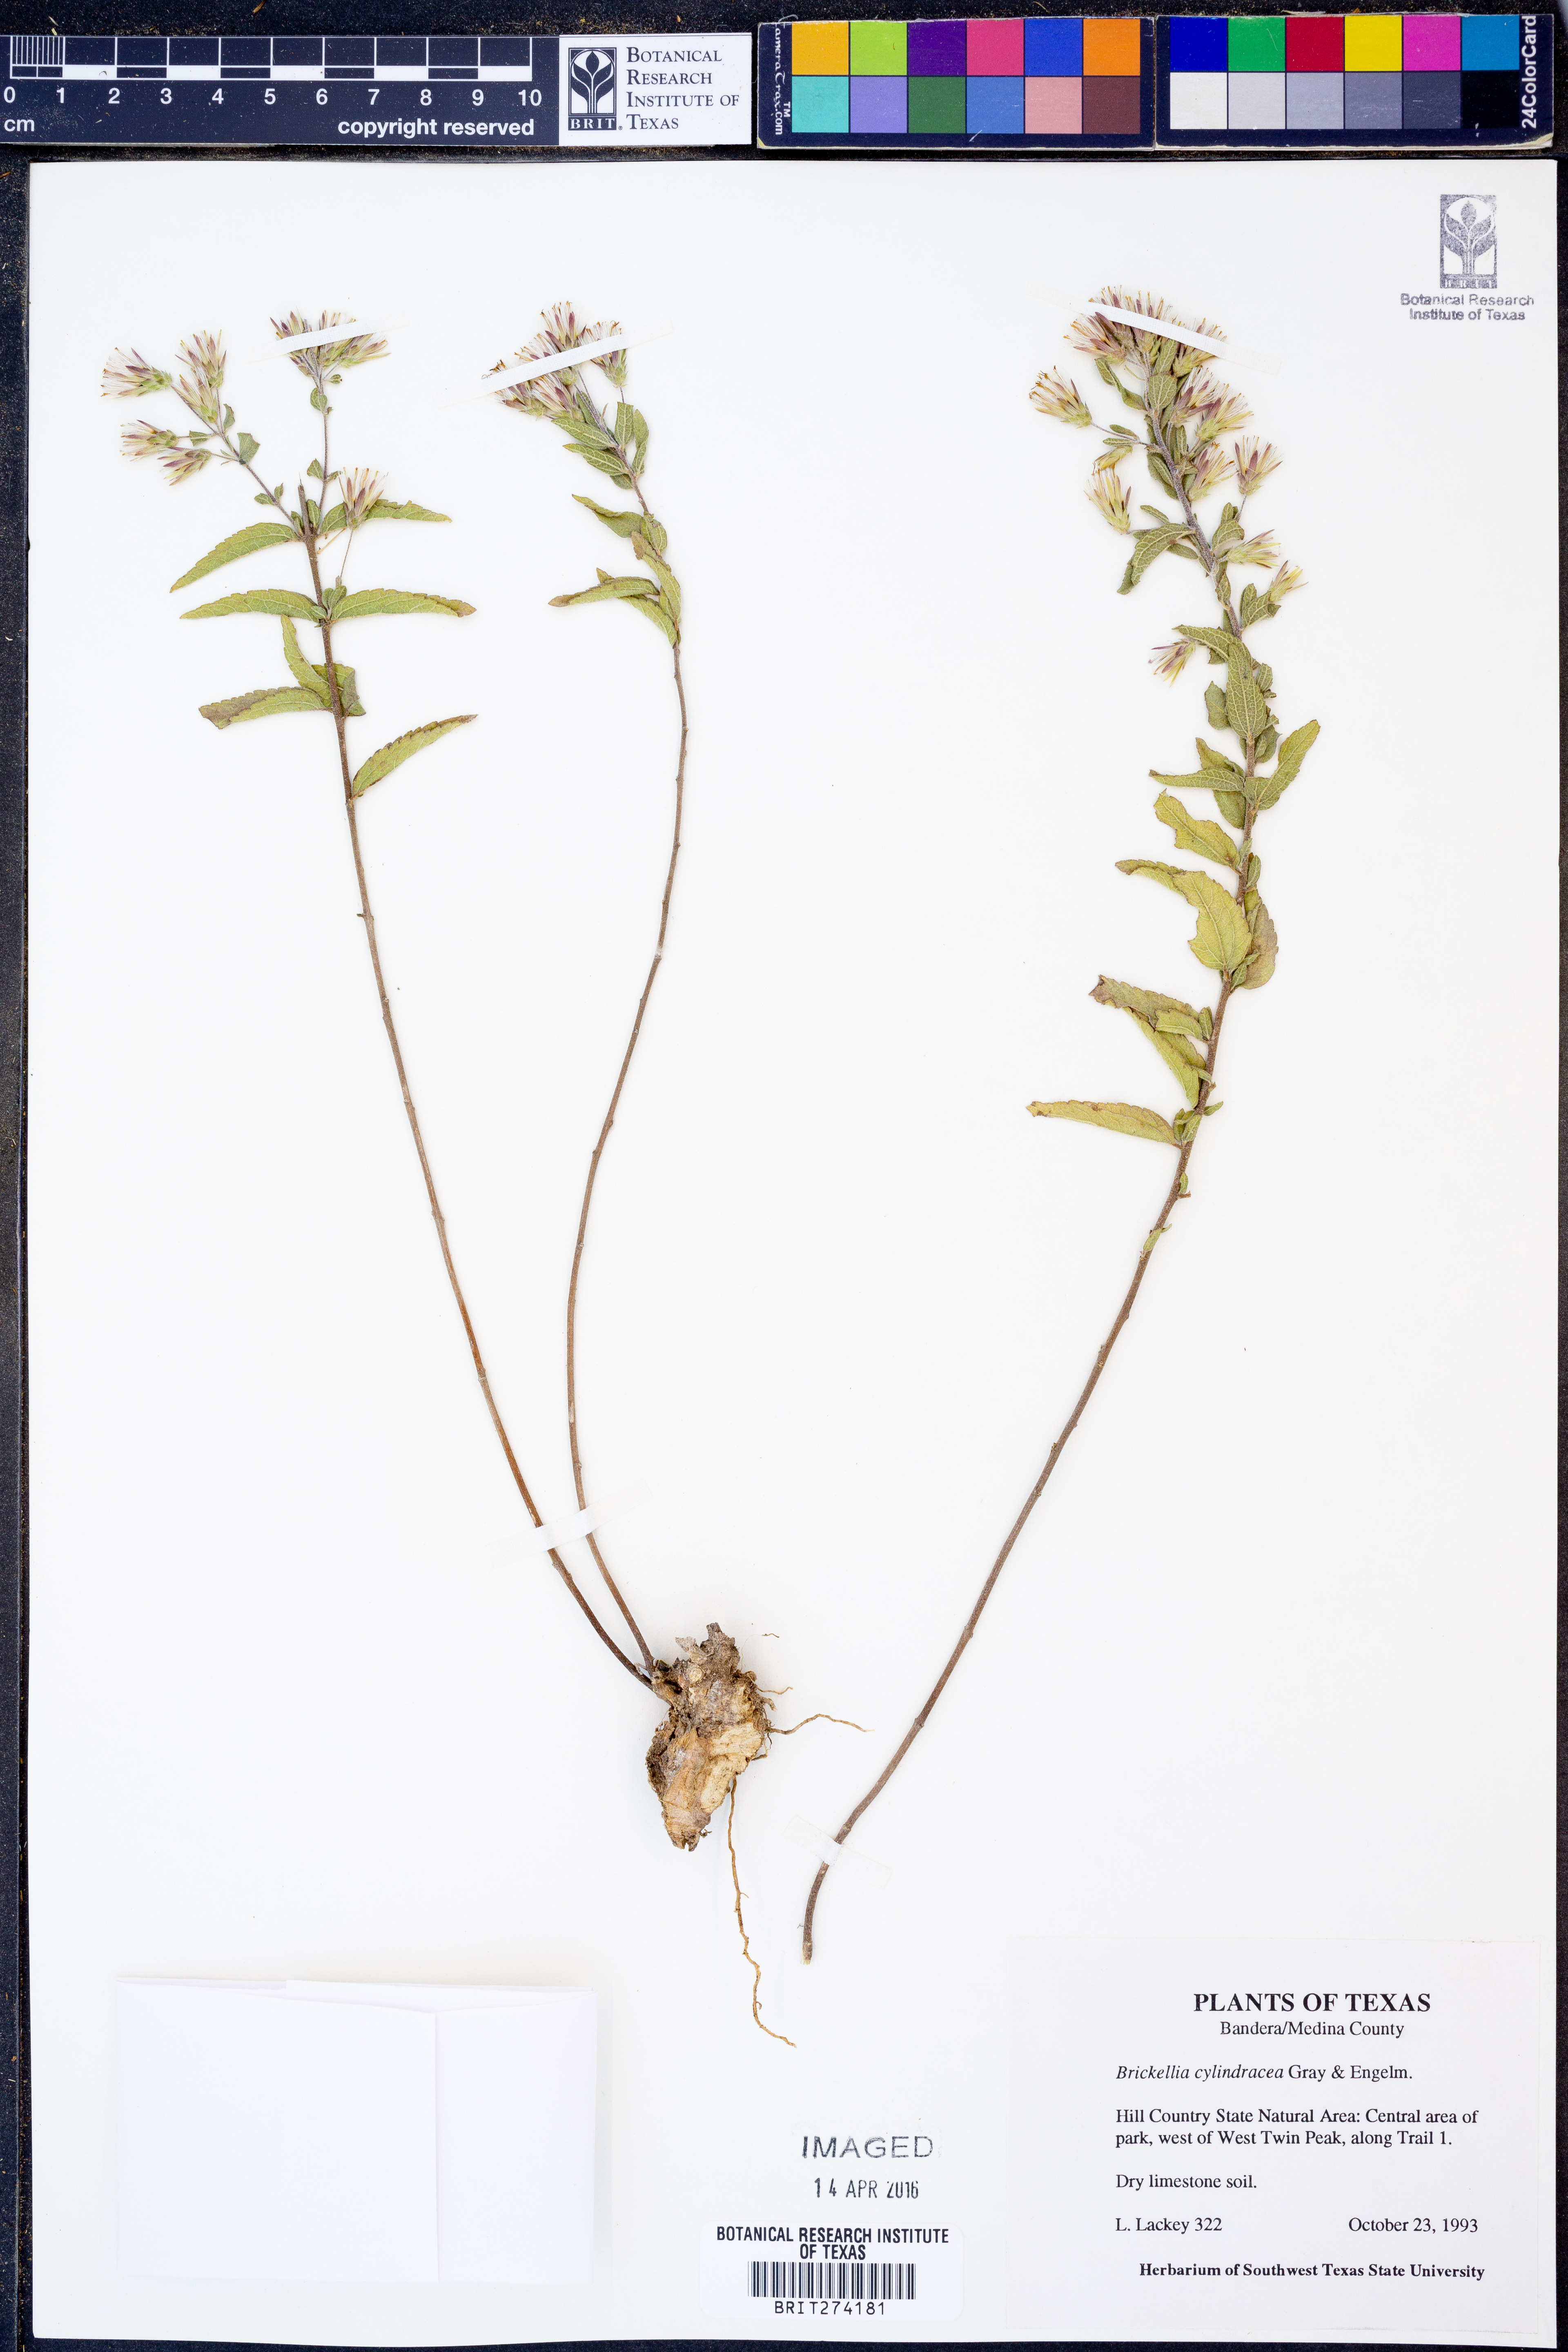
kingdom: Plantae
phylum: Tracheophyta
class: Magnoliopsida
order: Asterales
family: Asteraceae
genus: Brickellia
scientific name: Brickellia cylindracea
